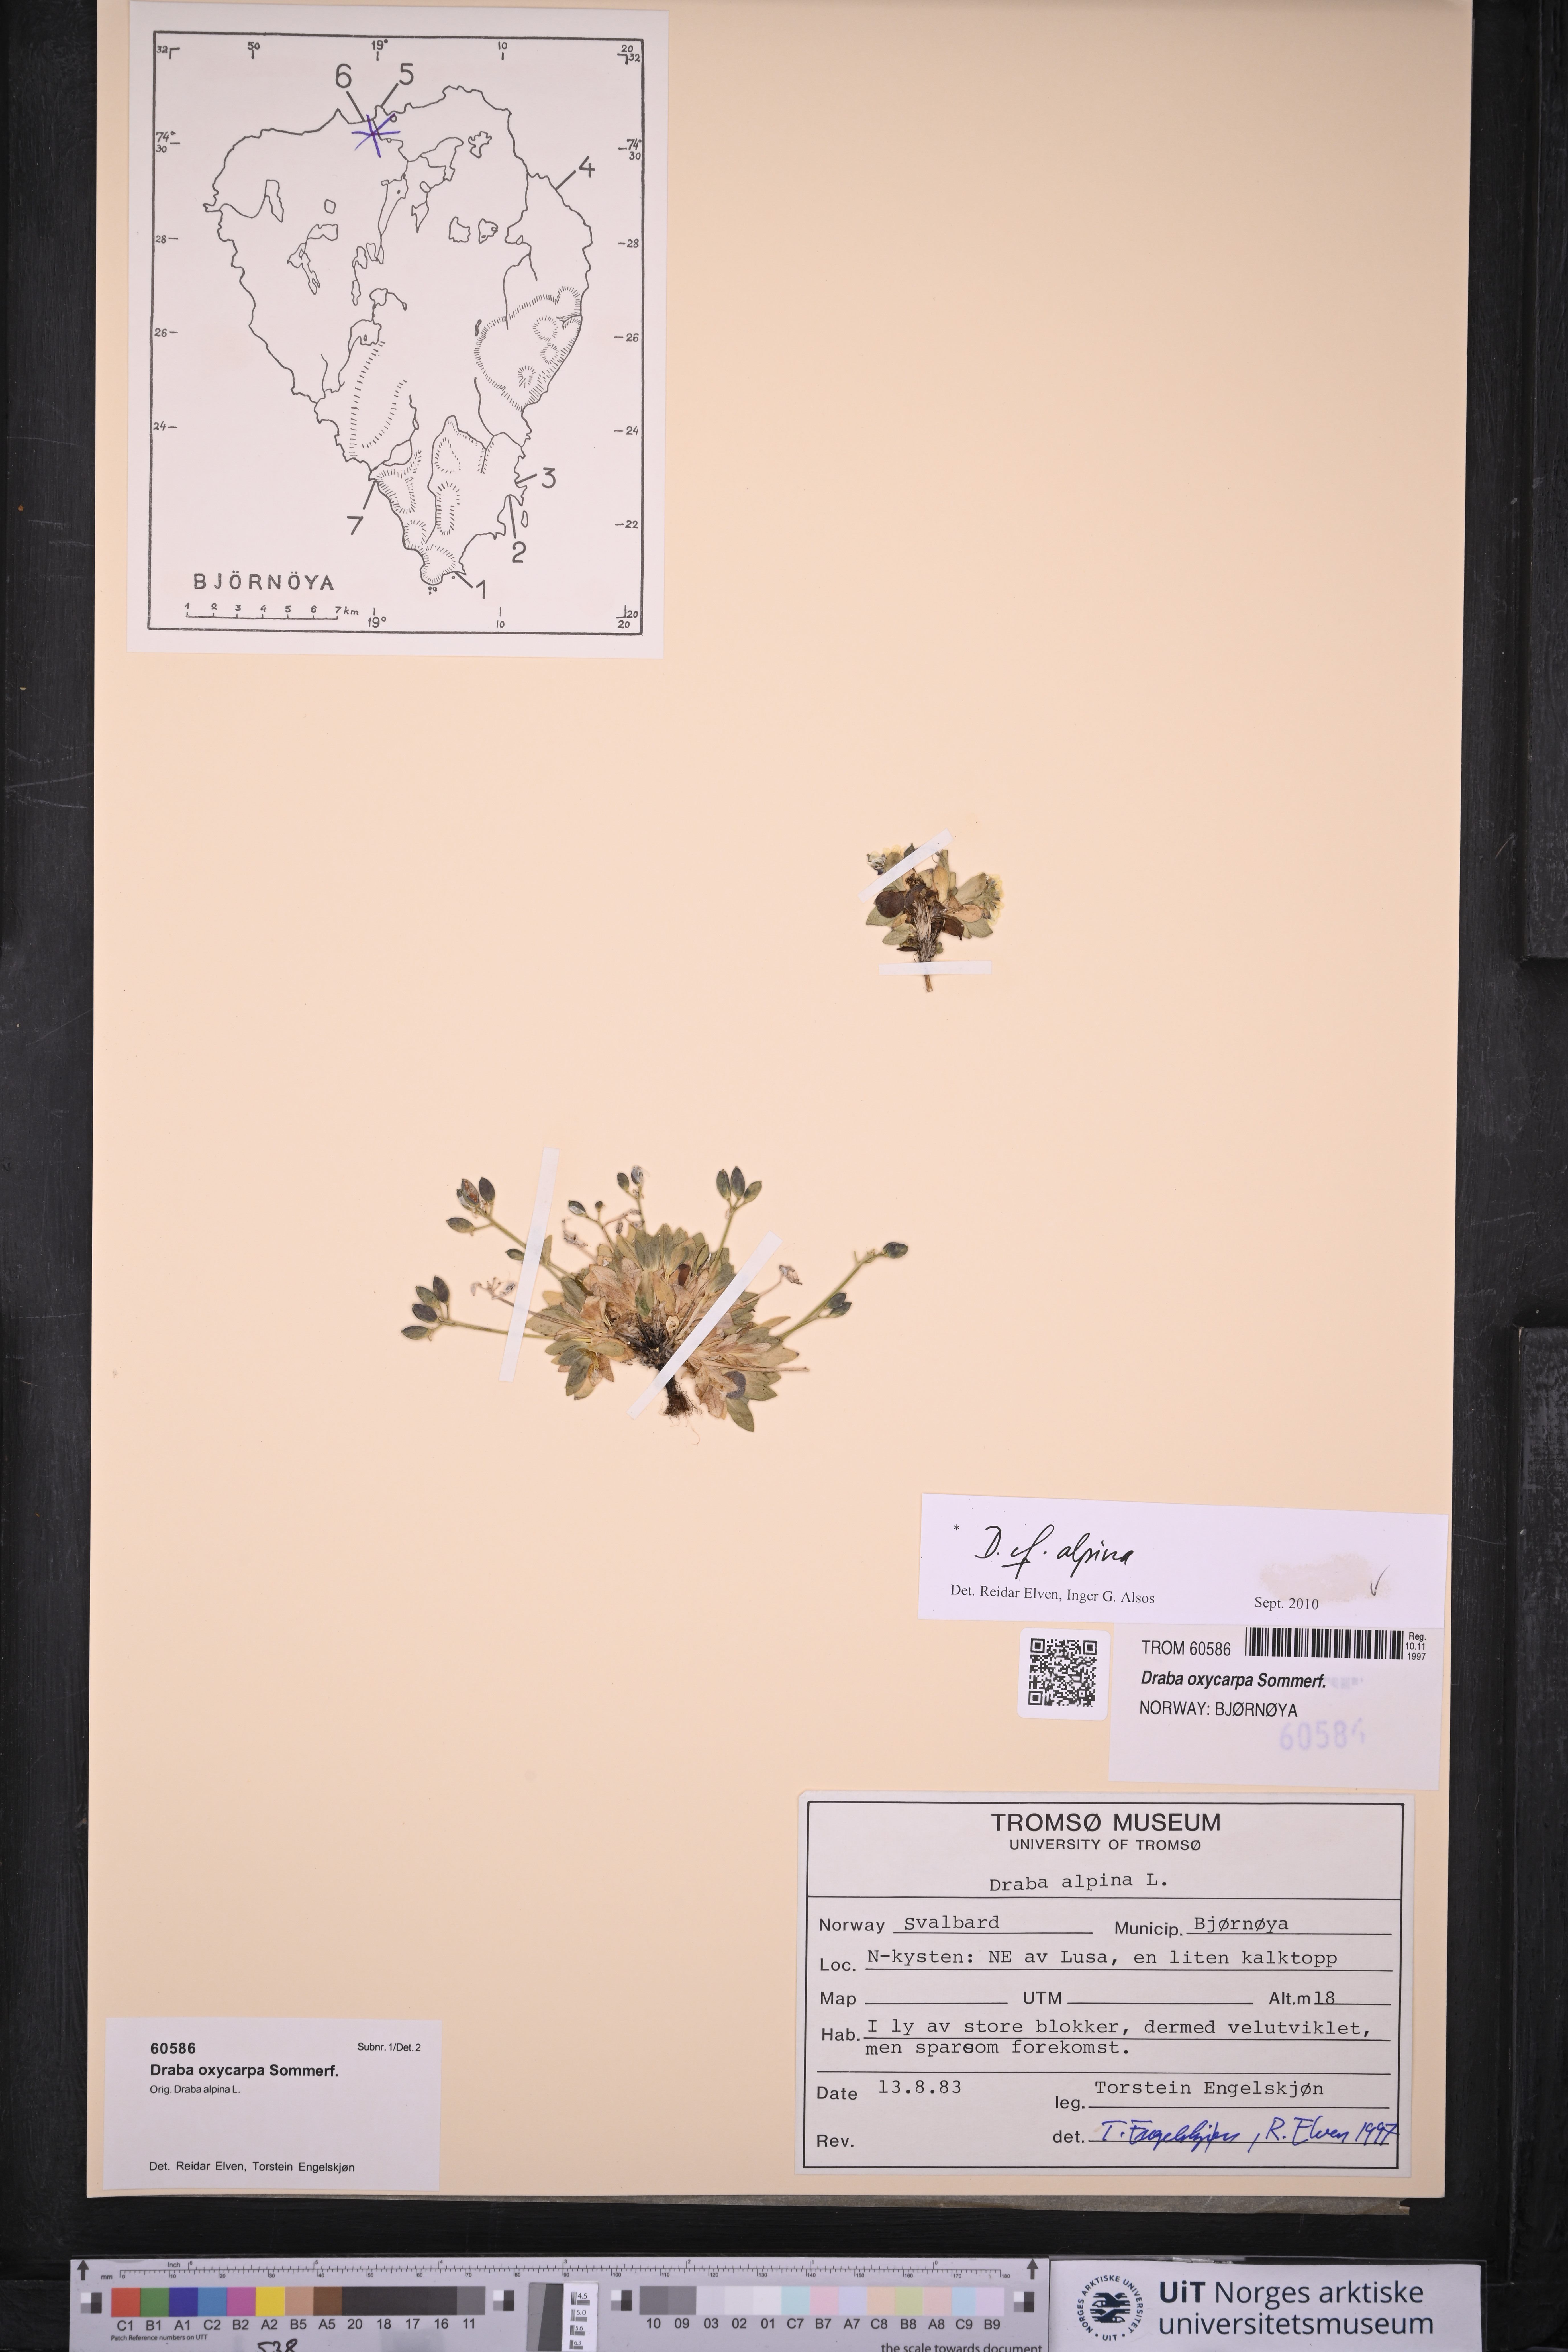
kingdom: Plantae
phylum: Tracheophyta
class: Magnoliopsida
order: Brassicales
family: Brassicaceae
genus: Draba
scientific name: Draba alpina
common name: Alpine draba
